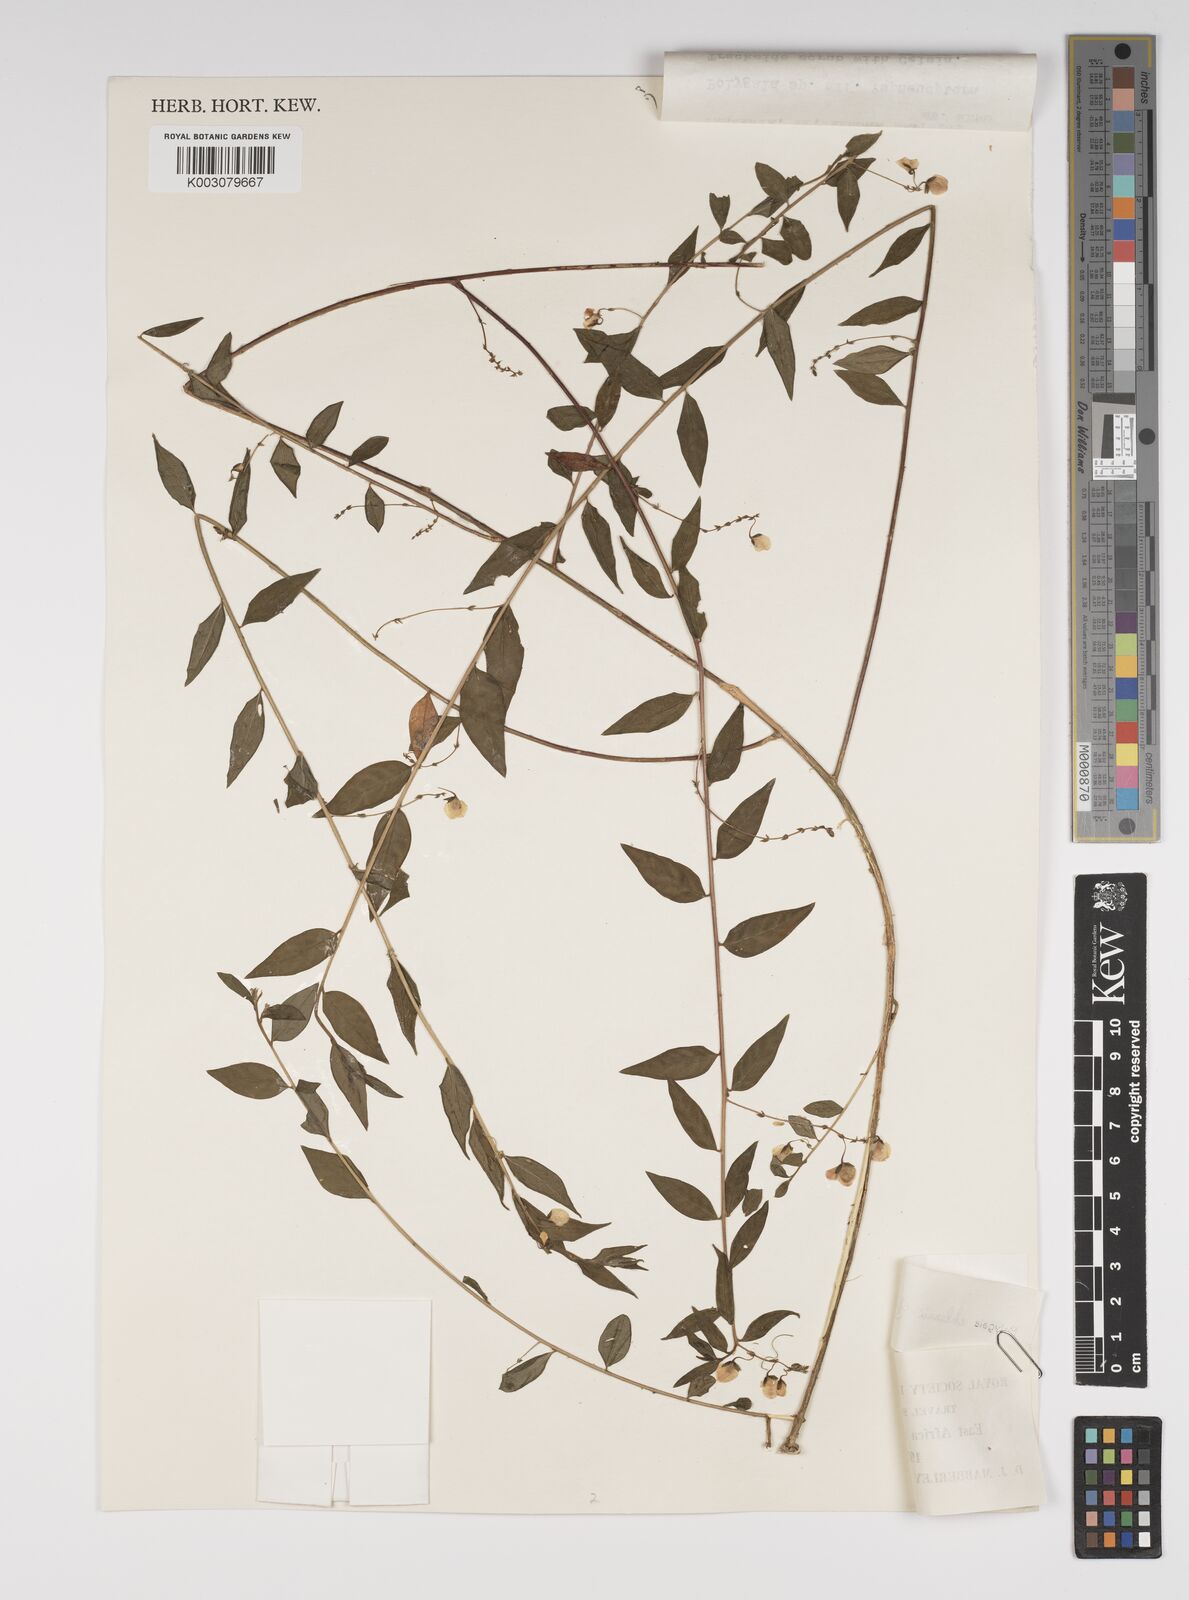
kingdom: Plantae
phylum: Tracheophyta
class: Magnoliopsida
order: Fabales
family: Polygalaceae
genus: Polygala
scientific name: Polygala ehlersii
